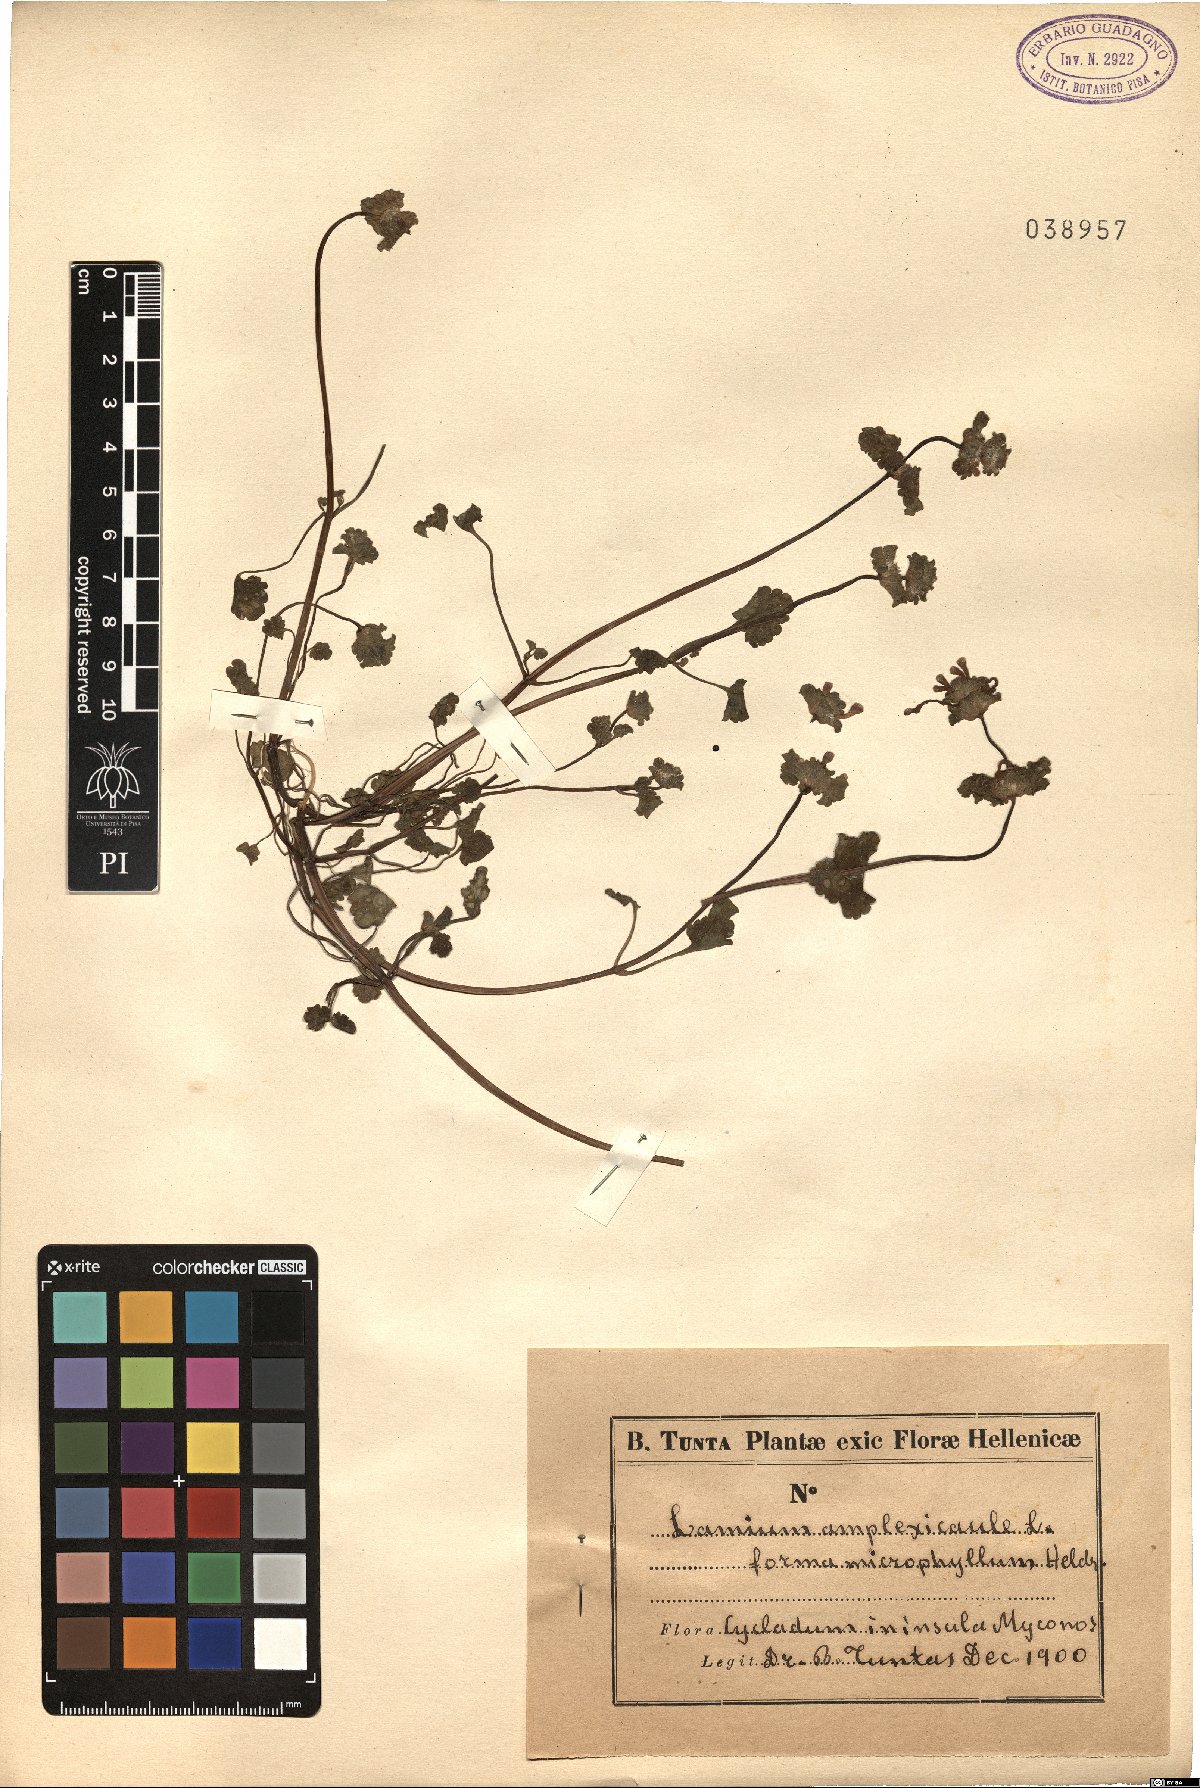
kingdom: Plantae
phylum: Tracheophyta
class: Magnoliopsida
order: Lamiales
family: Lamiaceae
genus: Lamium
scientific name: Lamium amplexicaule
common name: Henbit dead-nettle
